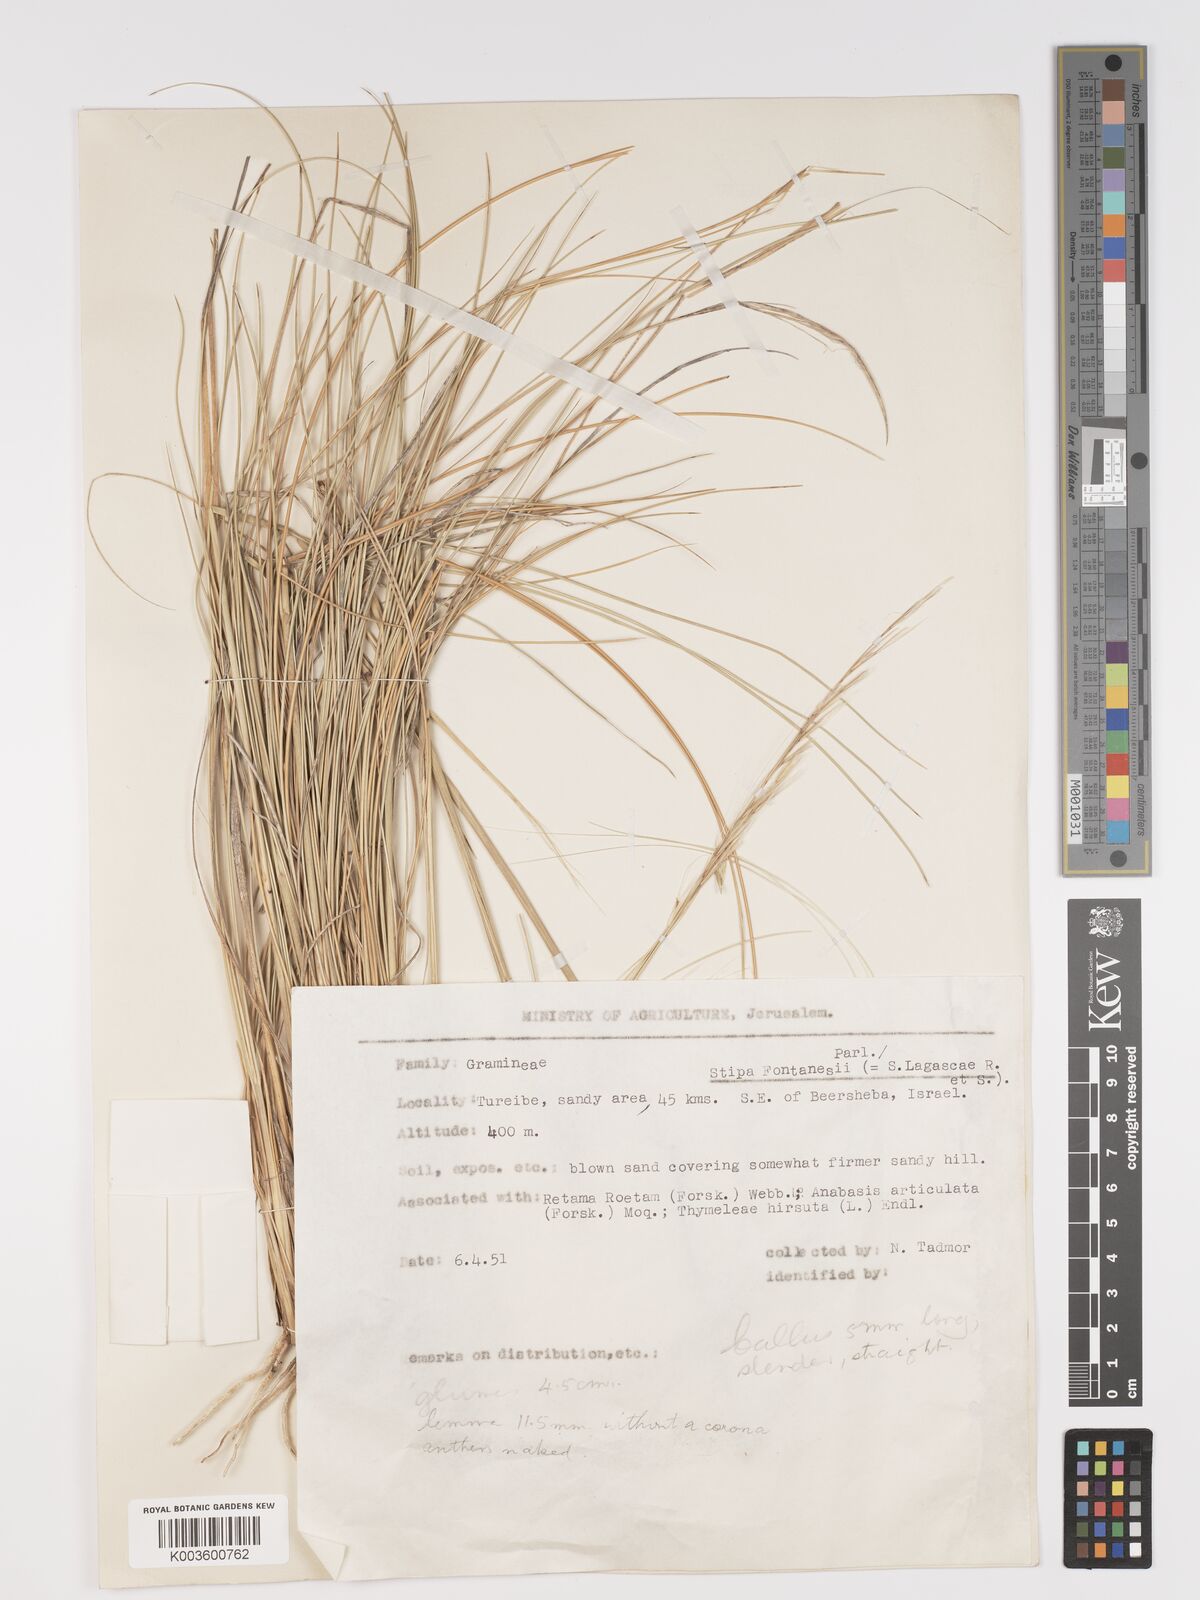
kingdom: Plantae
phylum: Tracheophyta
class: Liliopsida
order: Poales
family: Poaceae
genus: Stipa
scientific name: Stipa lagascae
